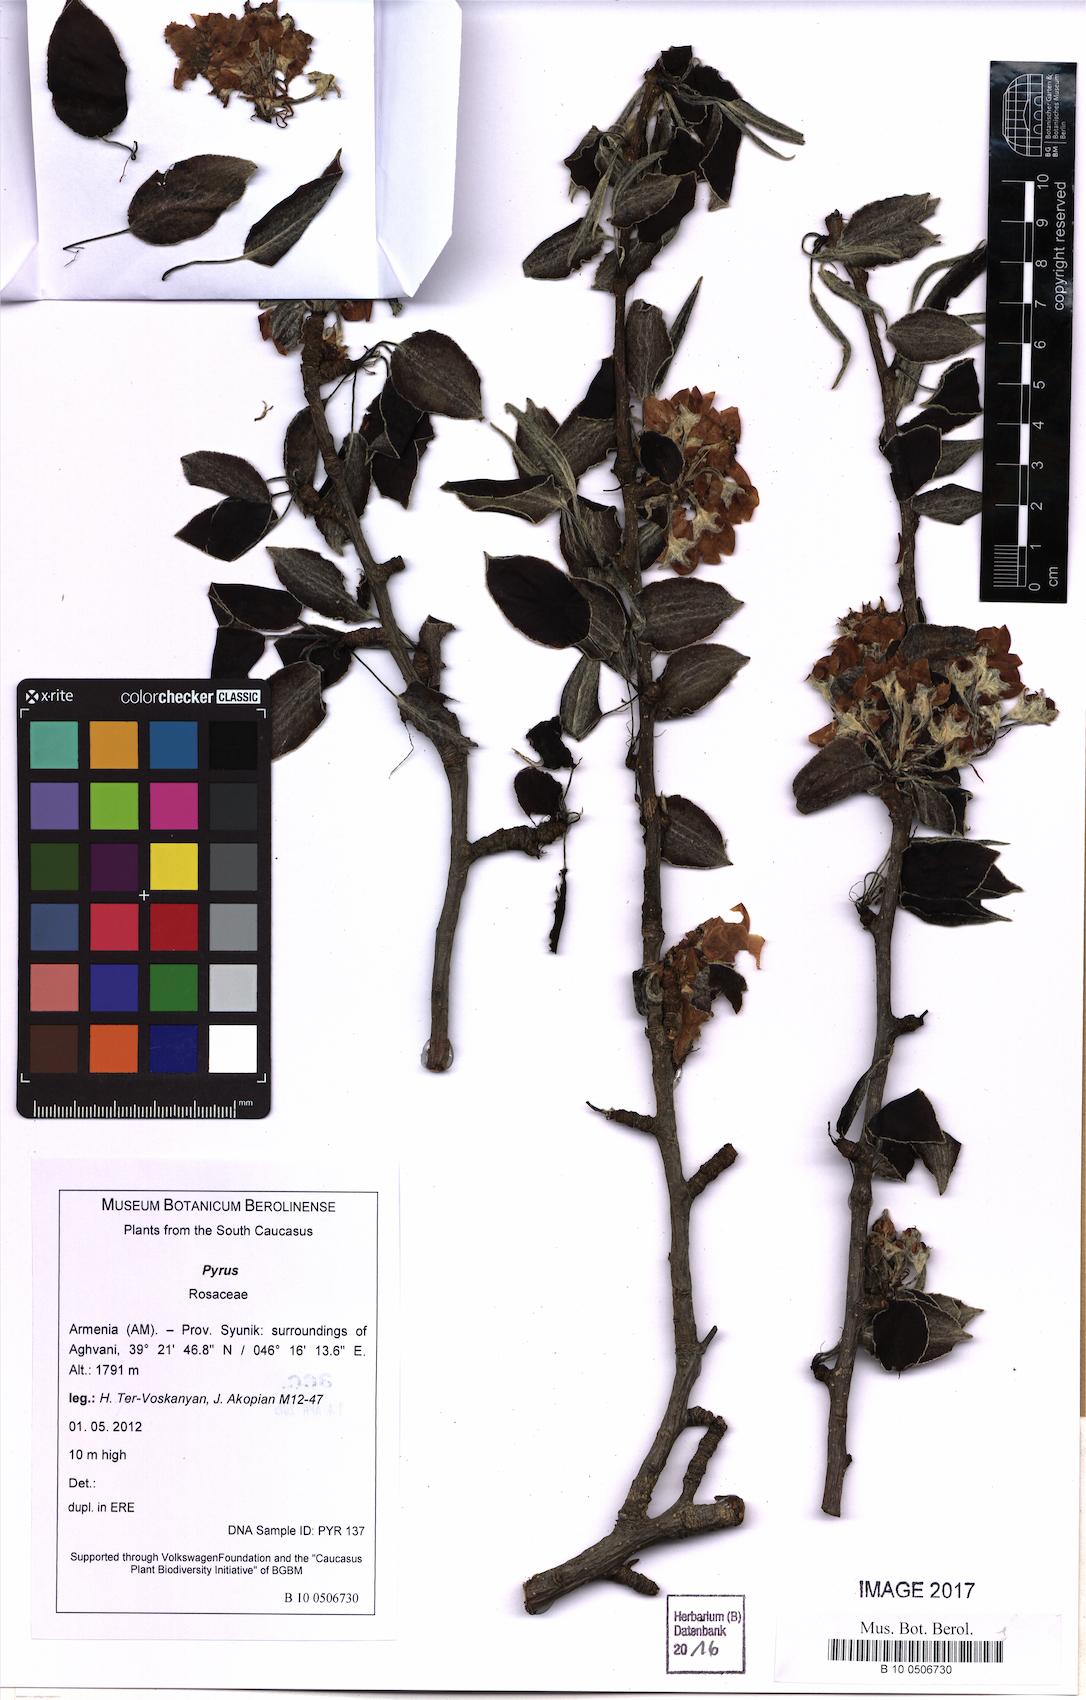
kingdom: Plantae
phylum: Tracheophyta
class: Magnoliopsida
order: Rosales
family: Rosaceae
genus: Pyrus
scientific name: Pyrus
